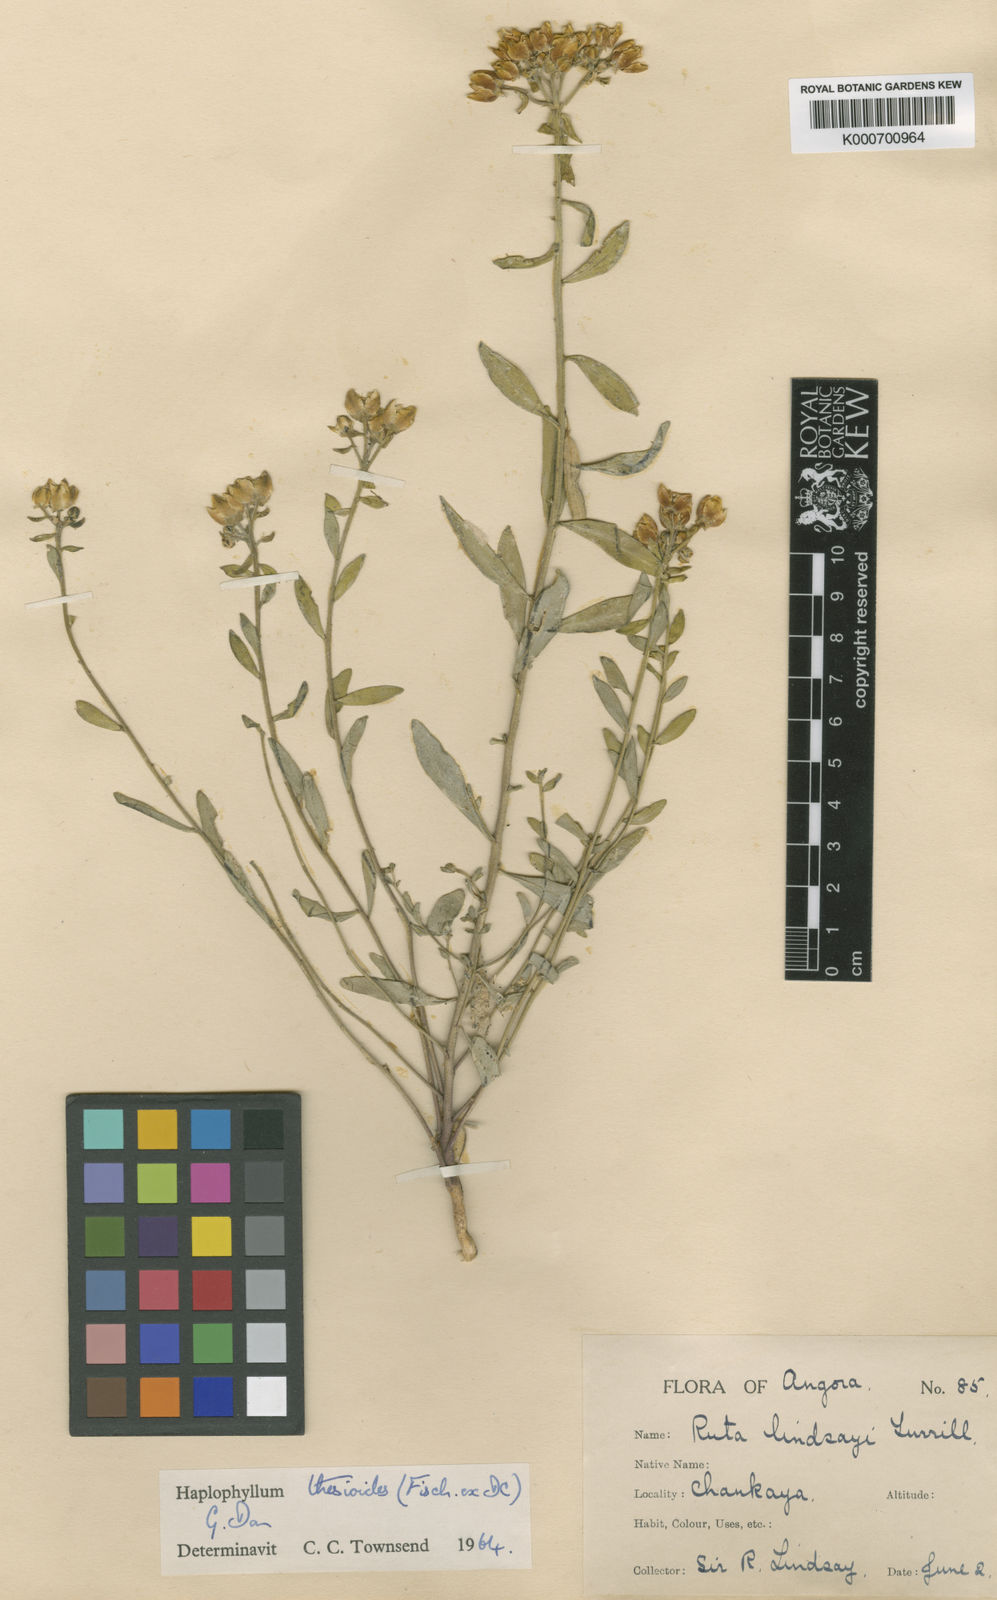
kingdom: Plantae
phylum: Tracheophyta
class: Magnoliopsida
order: Sapindales
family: Rutaceae
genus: Haplophyllum
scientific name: Haplophyllum thesioides
